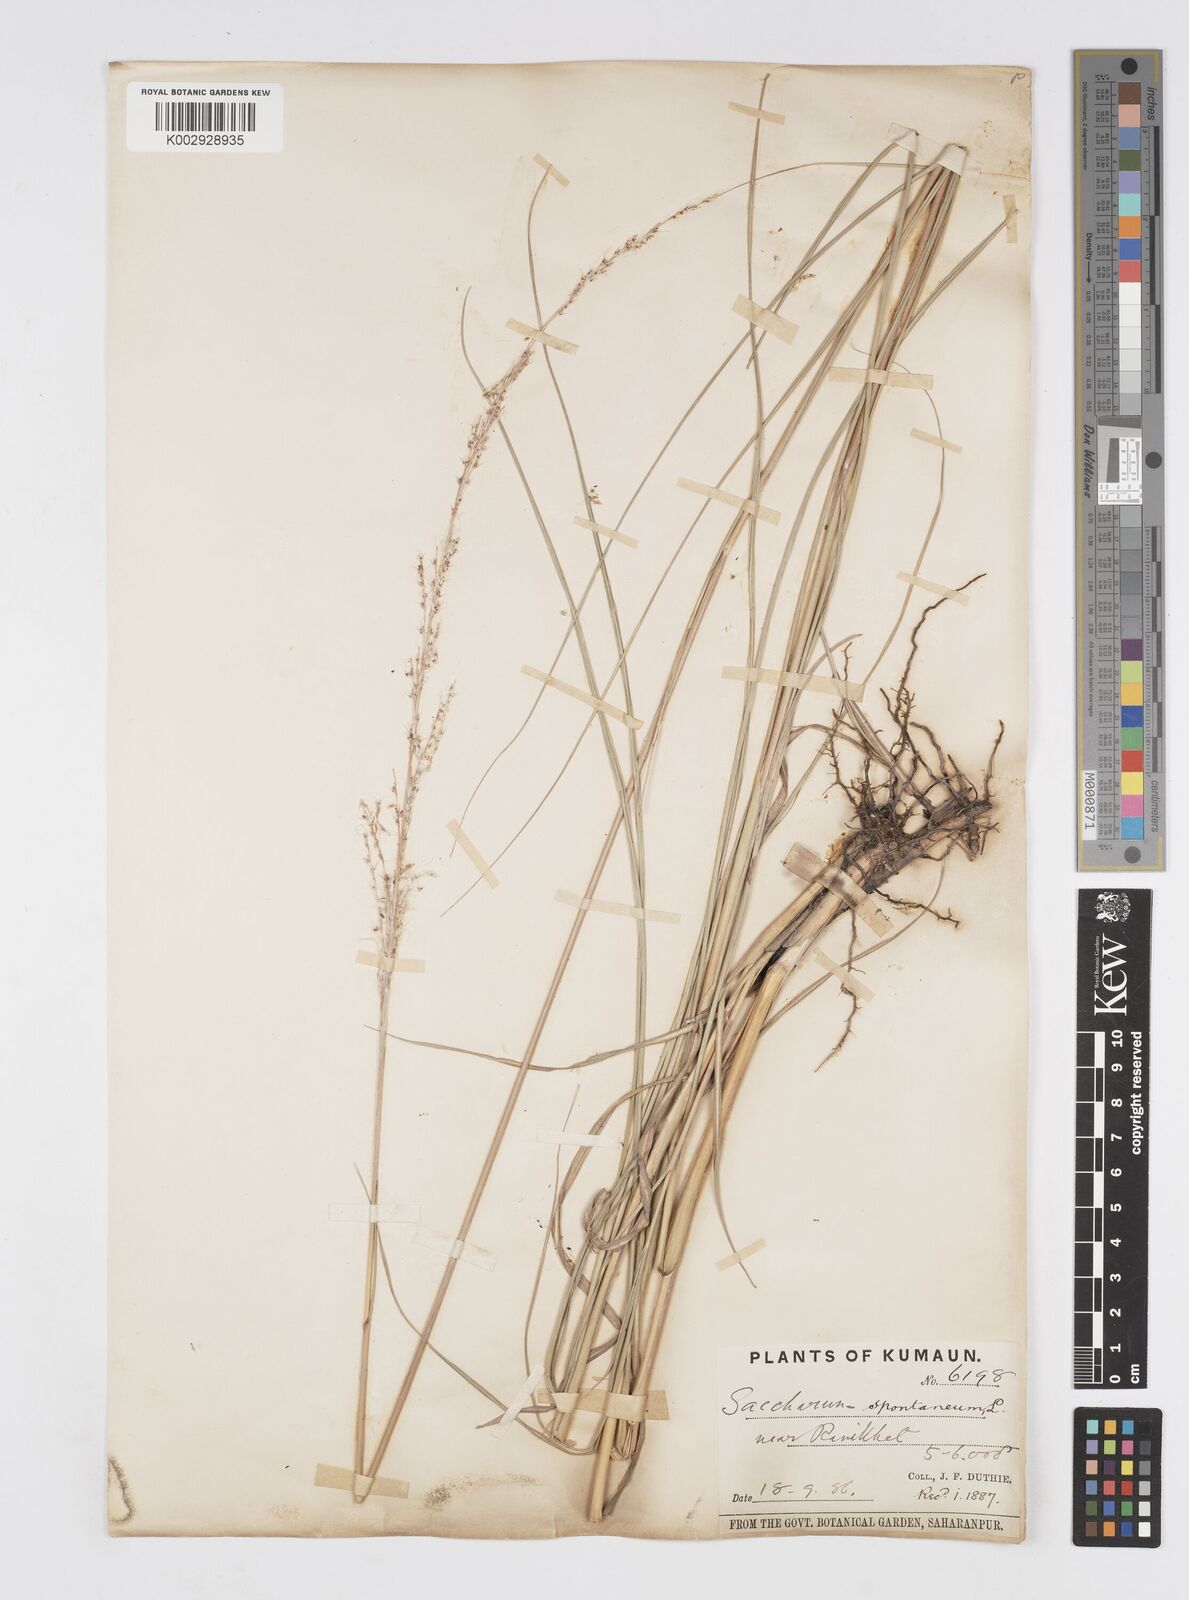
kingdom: Plantae
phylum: Tracheophyta
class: Liliopsida
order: Poales
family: Poaceae
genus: Saccharum
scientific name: Saccharum spontaneum
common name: Wild sugarcane
